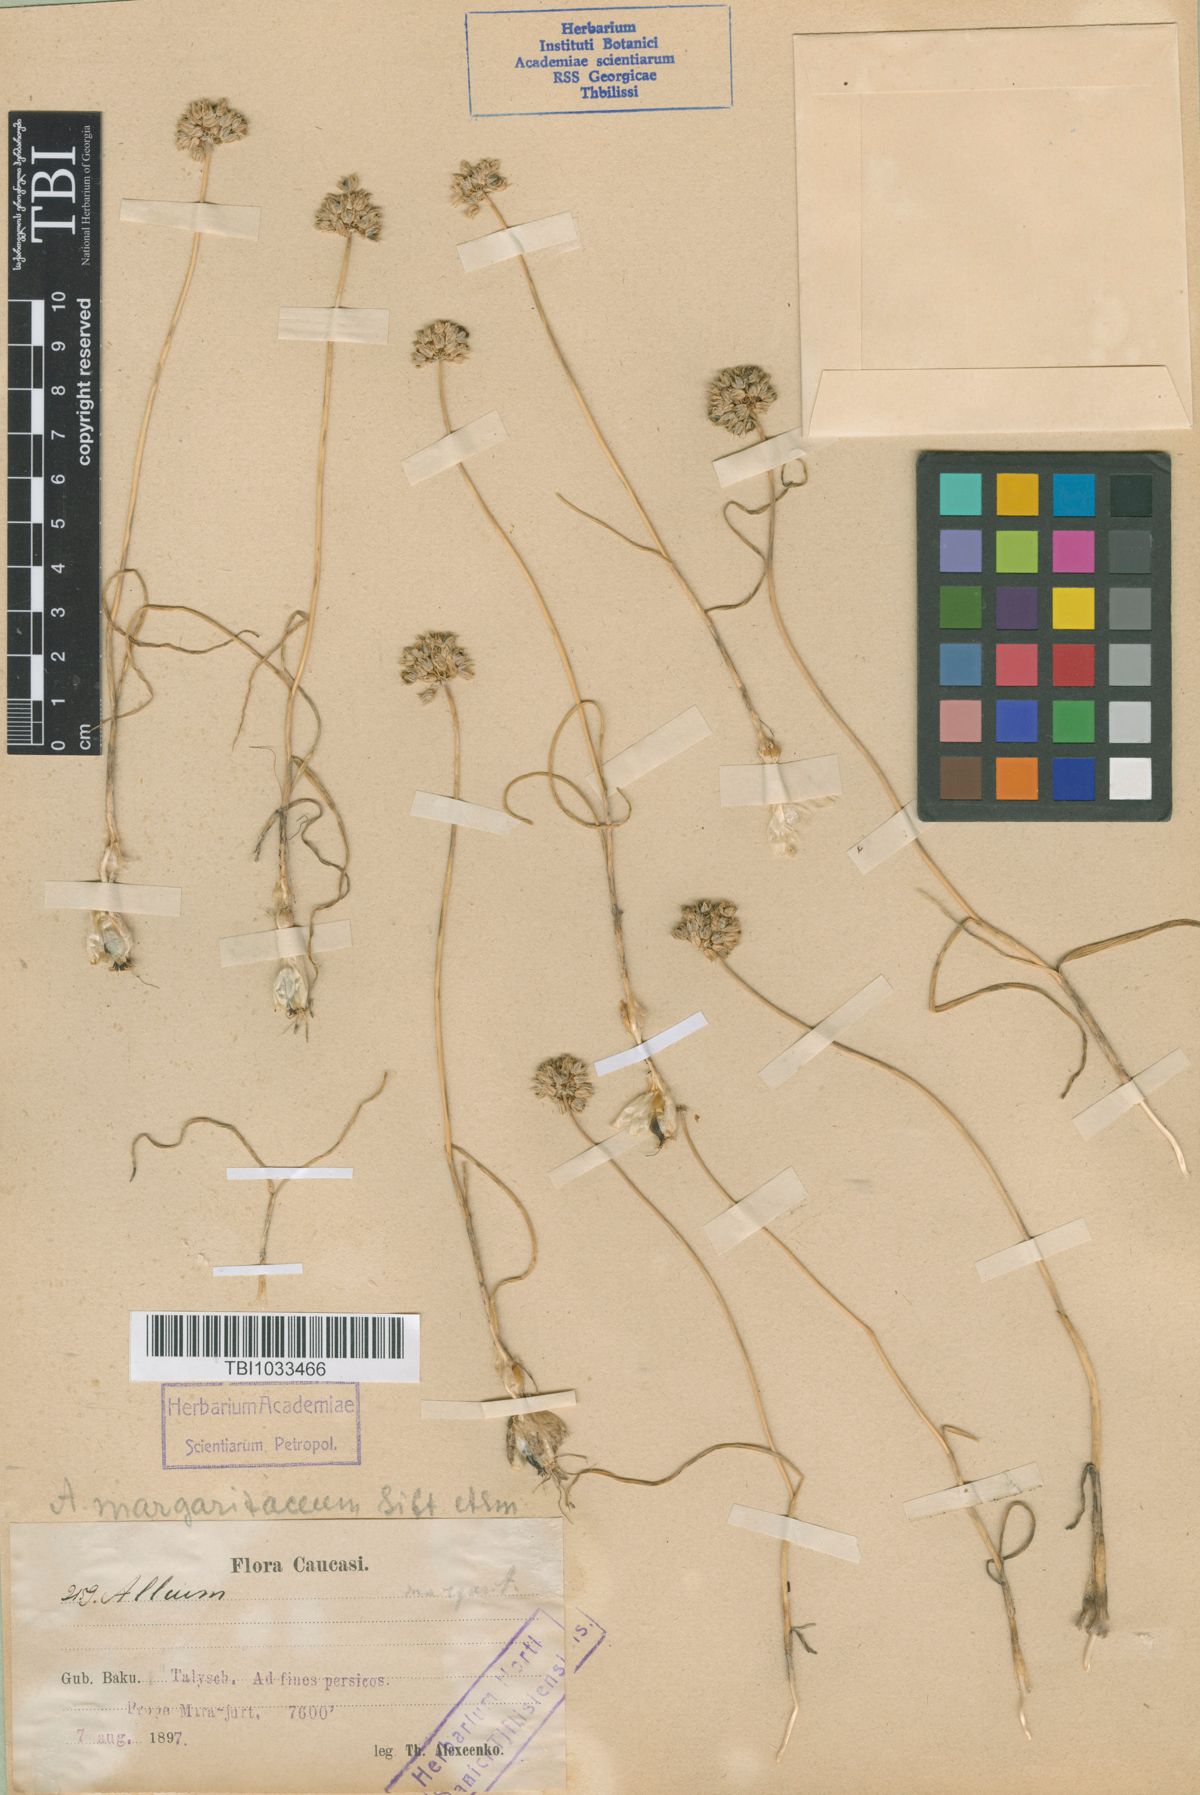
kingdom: Plantae
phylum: Tracheophyta
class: Liliopsida
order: Asparagales
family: Amaryllidaceae
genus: Allium
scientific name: Allium sardoum
